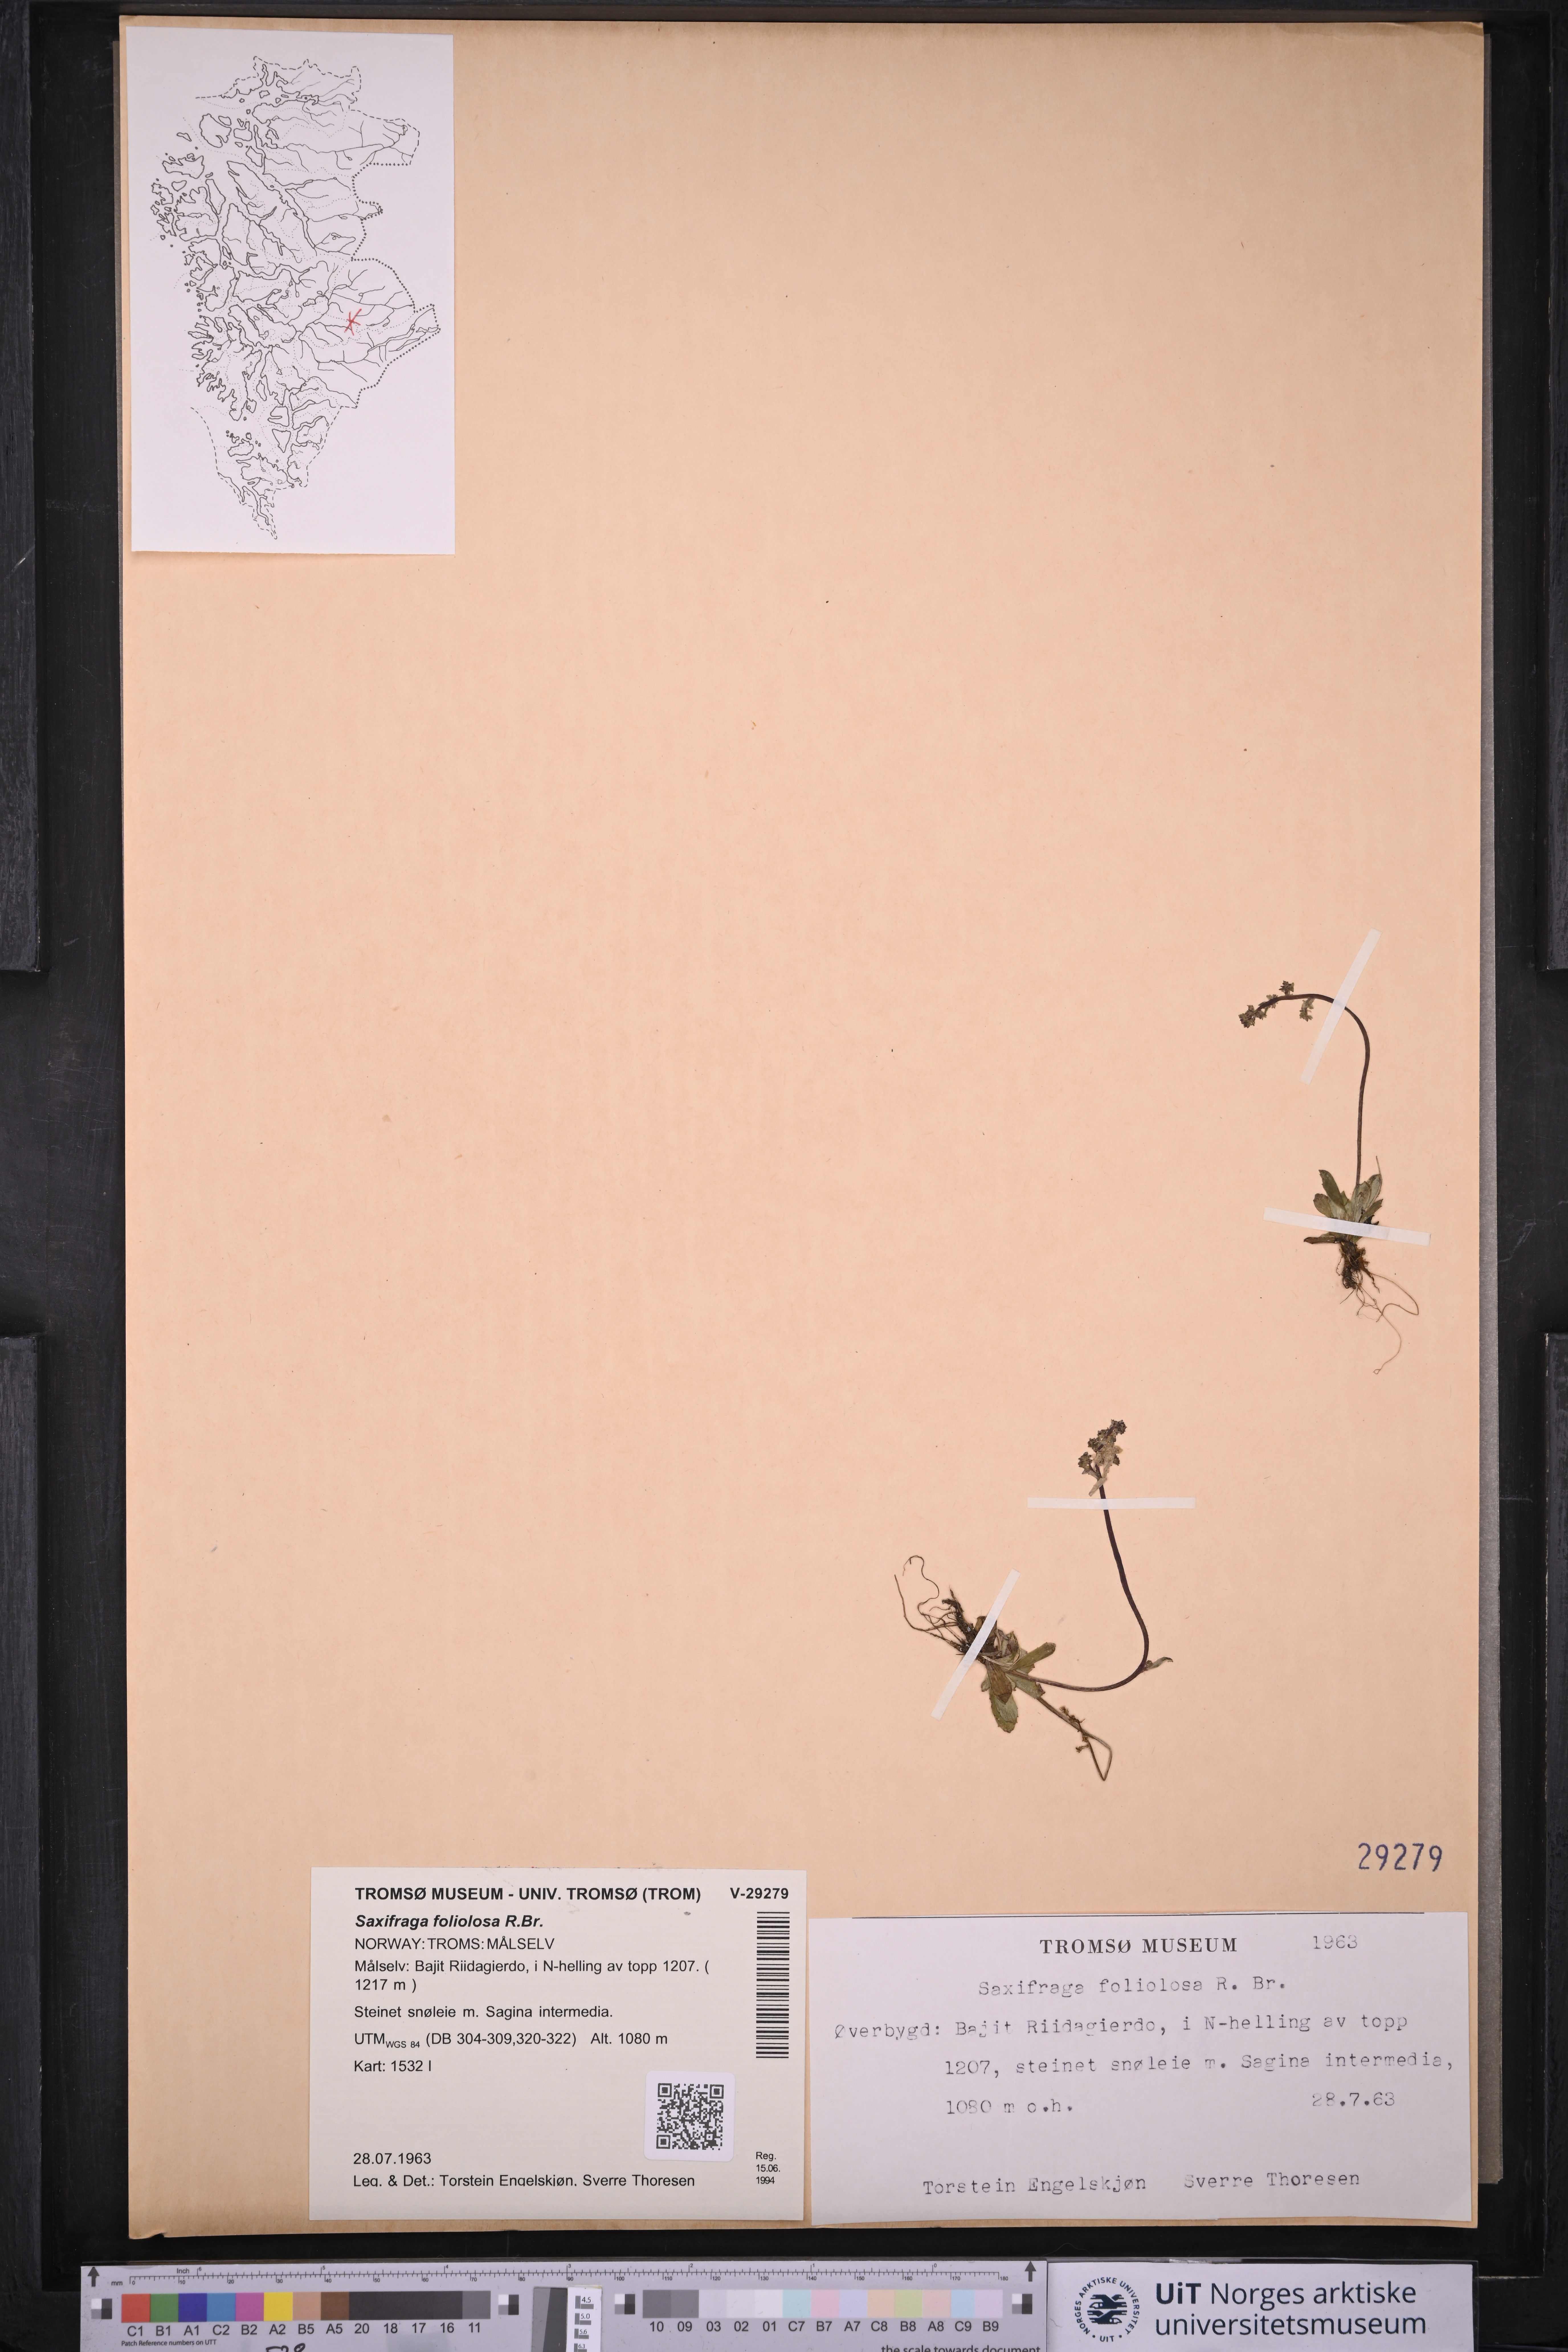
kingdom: Plantae
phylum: Tracheophyta
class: Magnoliopsida
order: Saxifragales
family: Saxifragaceae
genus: Micranthes
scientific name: Micranthes foliolosa
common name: Leafystem saxifrage
